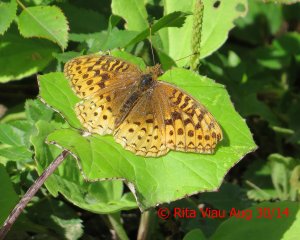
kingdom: Animalia
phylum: Arthropoda
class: Insecta
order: Lepidoptera
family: Nymphalidae
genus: Speyeria
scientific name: Speyeria cybele
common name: Great Spangled Fritillary
